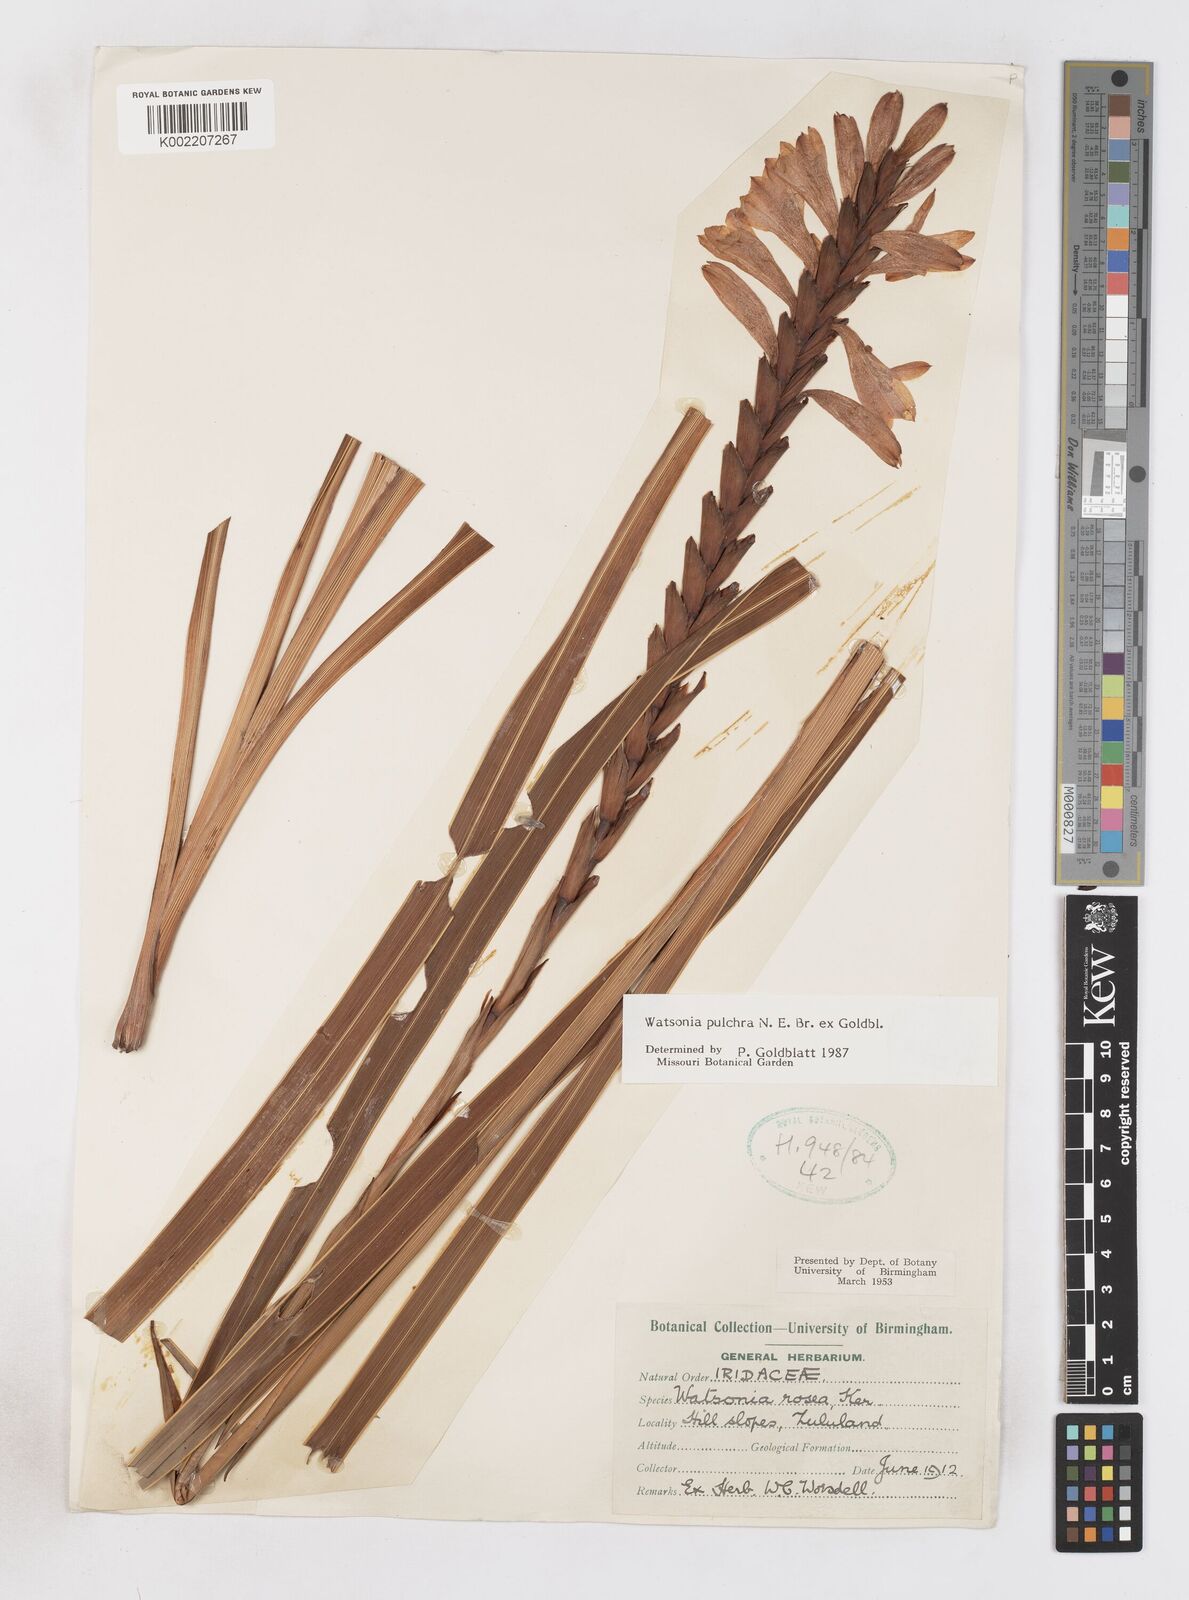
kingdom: Plantae
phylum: Tracheophyta
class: Liliopsida
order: Asparagales
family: Iridaceae
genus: Watsonia
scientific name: Watsonia pulchra
